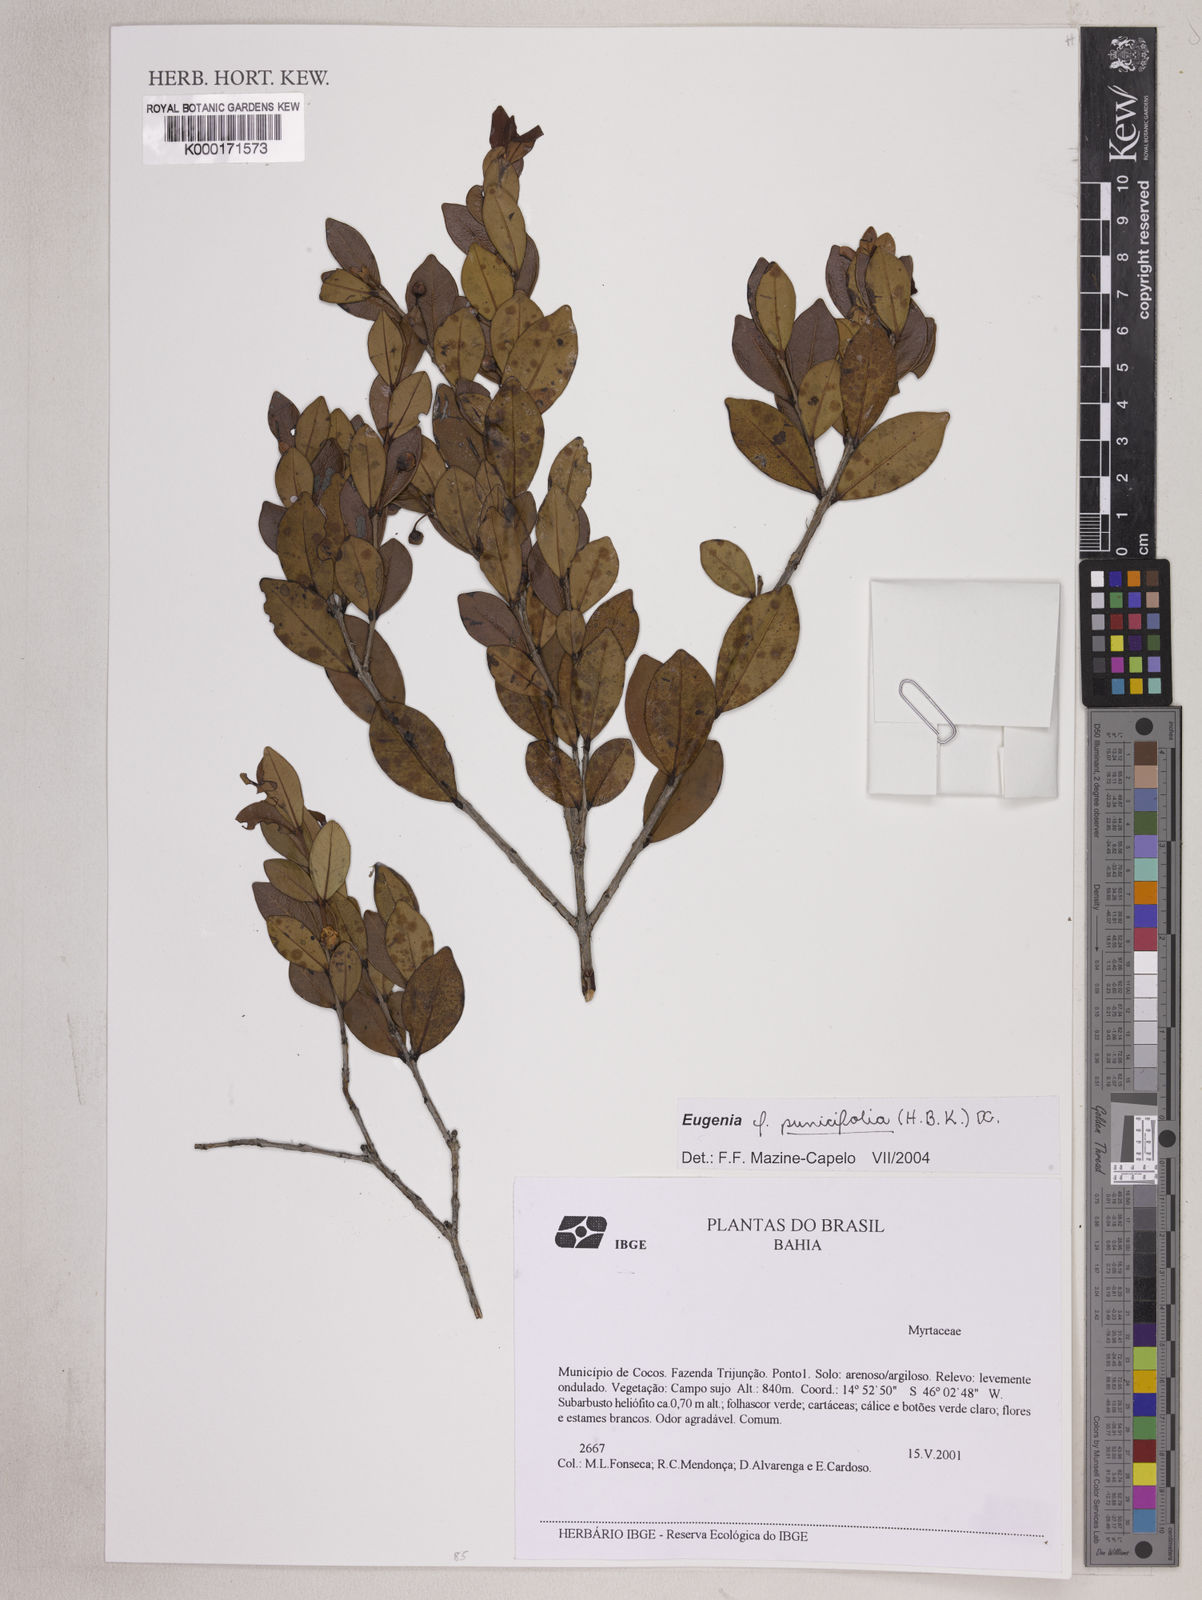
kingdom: Plantae
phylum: Tracheophyta
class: Magnoliopsida
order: Myrtales
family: Myrtaceae
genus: Eugenia
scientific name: Eugenia punicifolia
